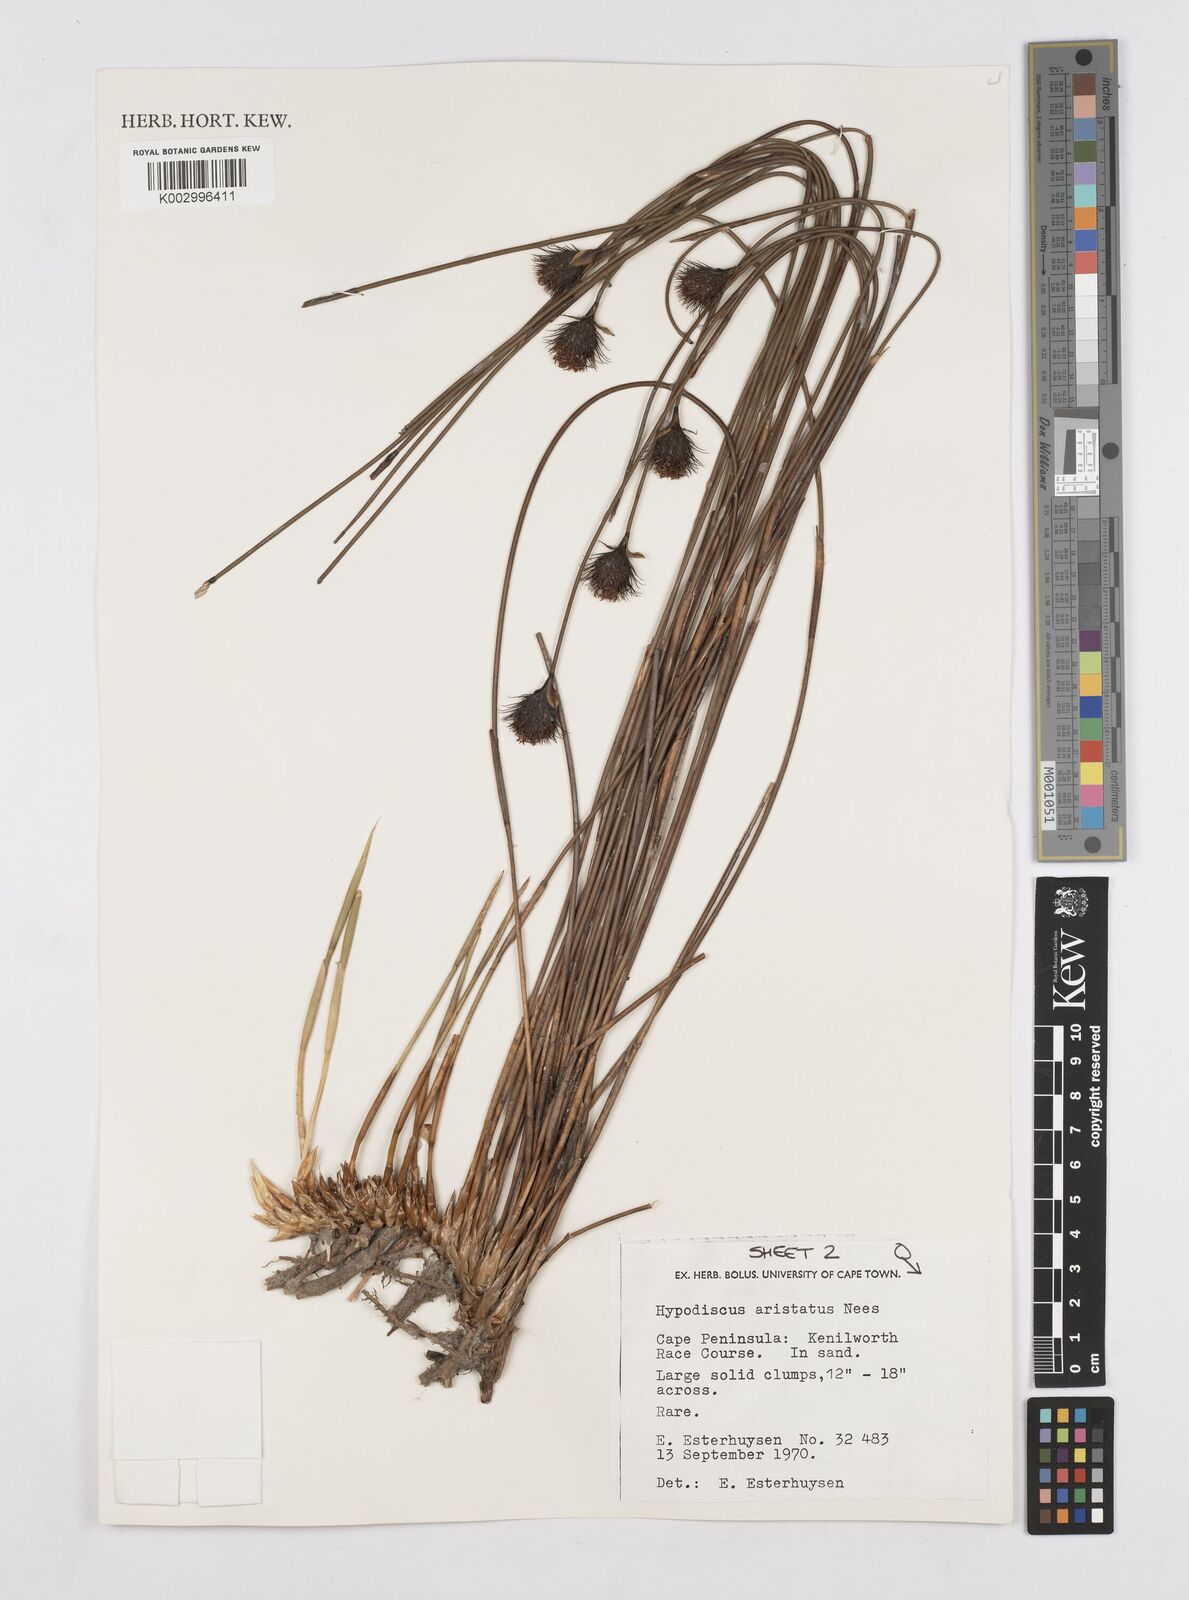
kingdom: Plantae
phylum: Tracheophyta
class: Liliopsida
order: Poales
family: Restionaceae
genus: Hypodiscus
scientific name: Hypodiscus aristatus
